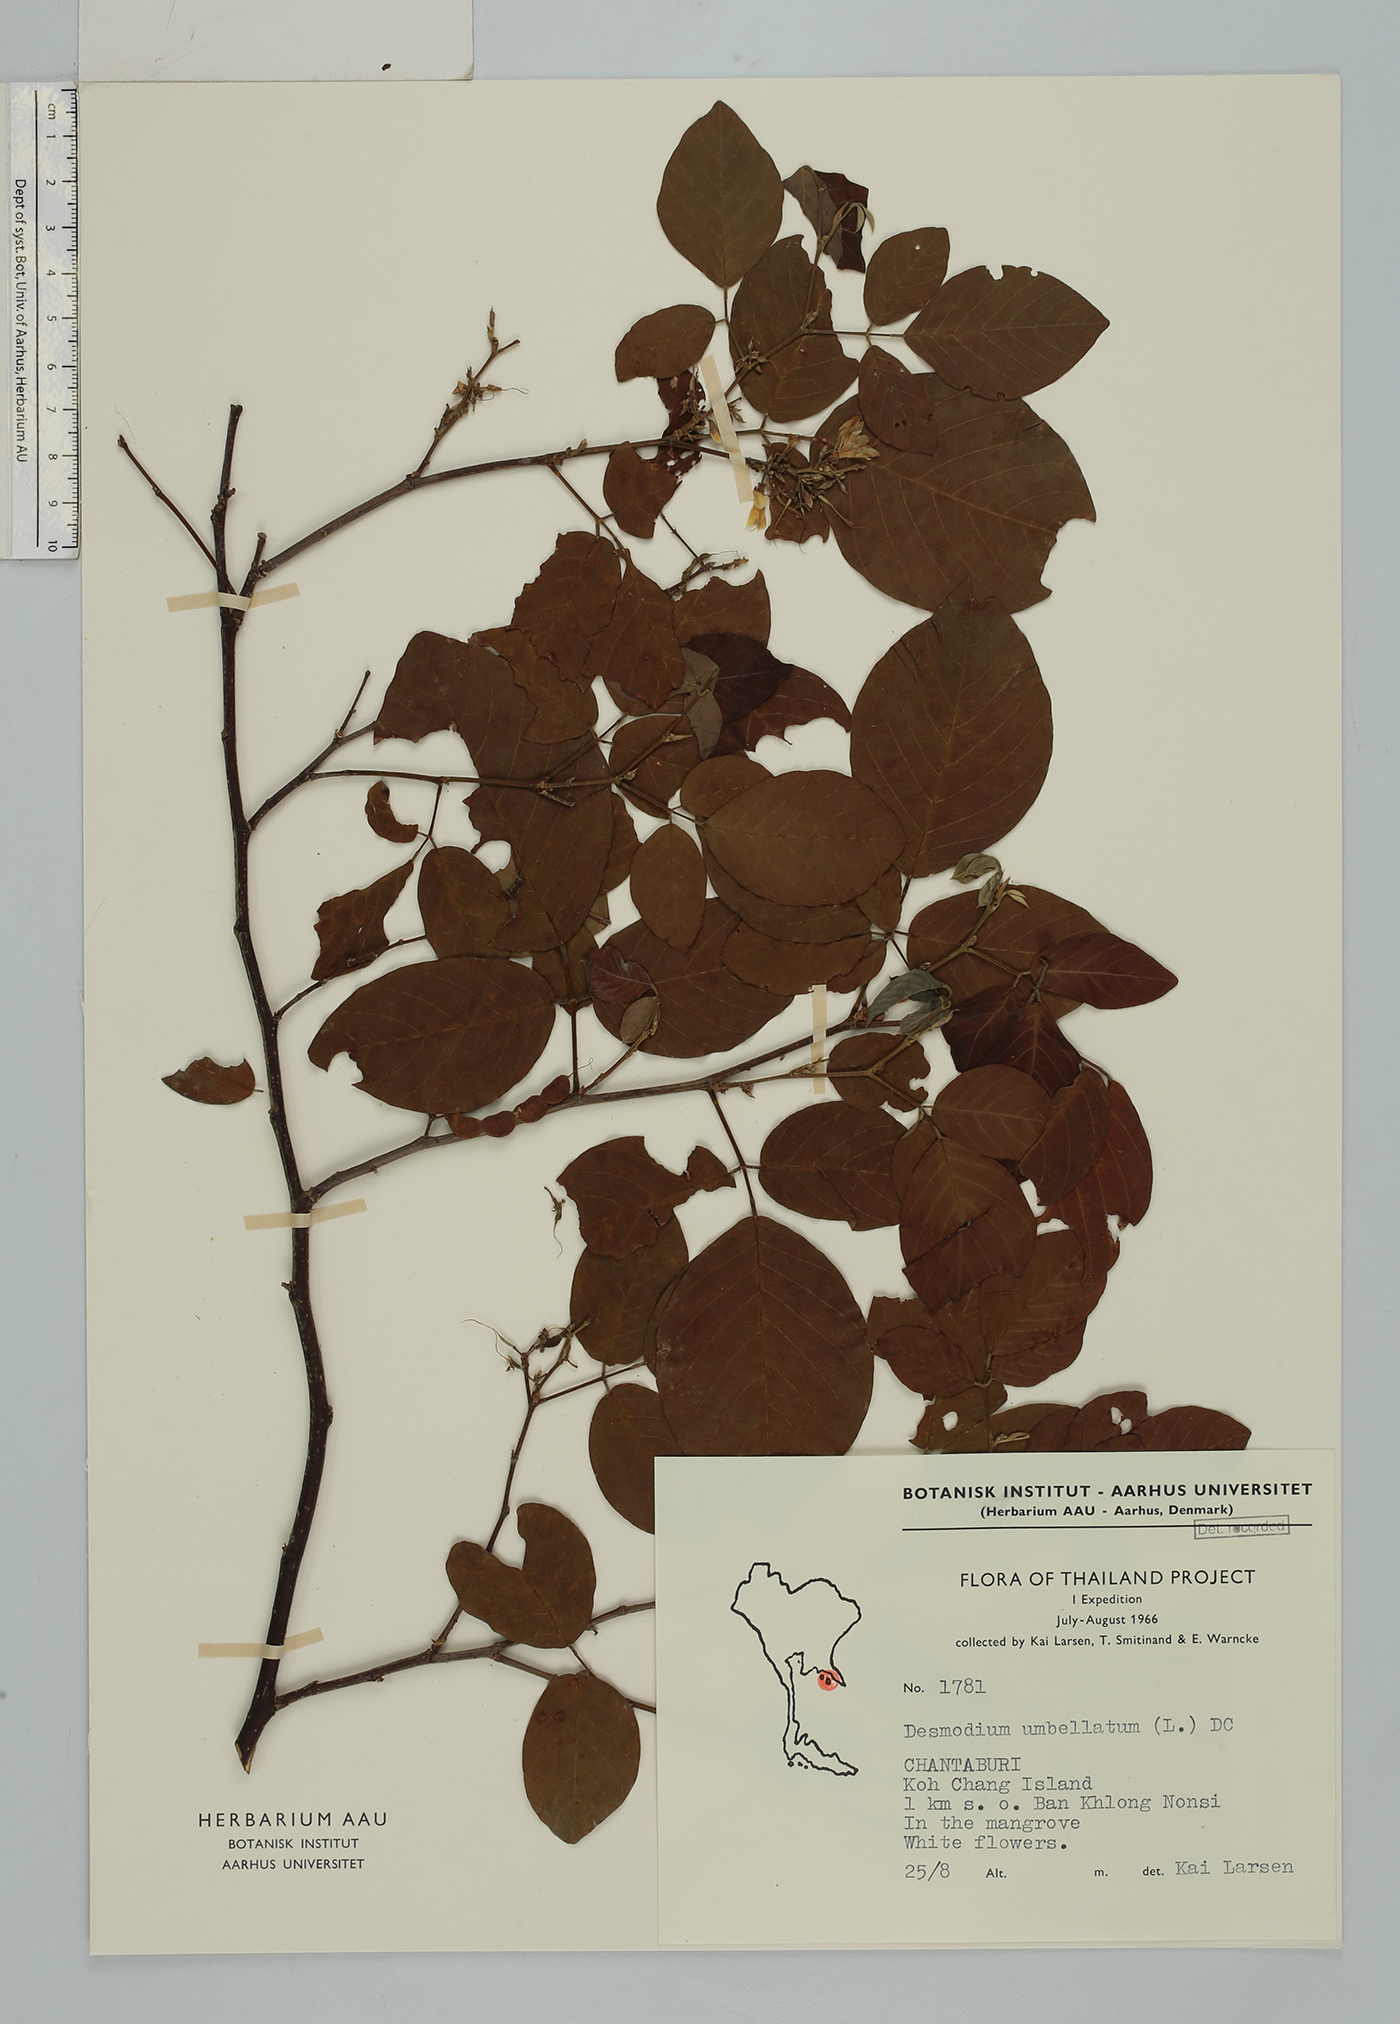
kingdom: Plantae
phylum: Tracheophyta
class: Magnoliopsida
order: Fabales
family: Fabaceae
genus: Dendrolobium
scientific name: Dendrolobium umbellatum
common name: Horsebush
